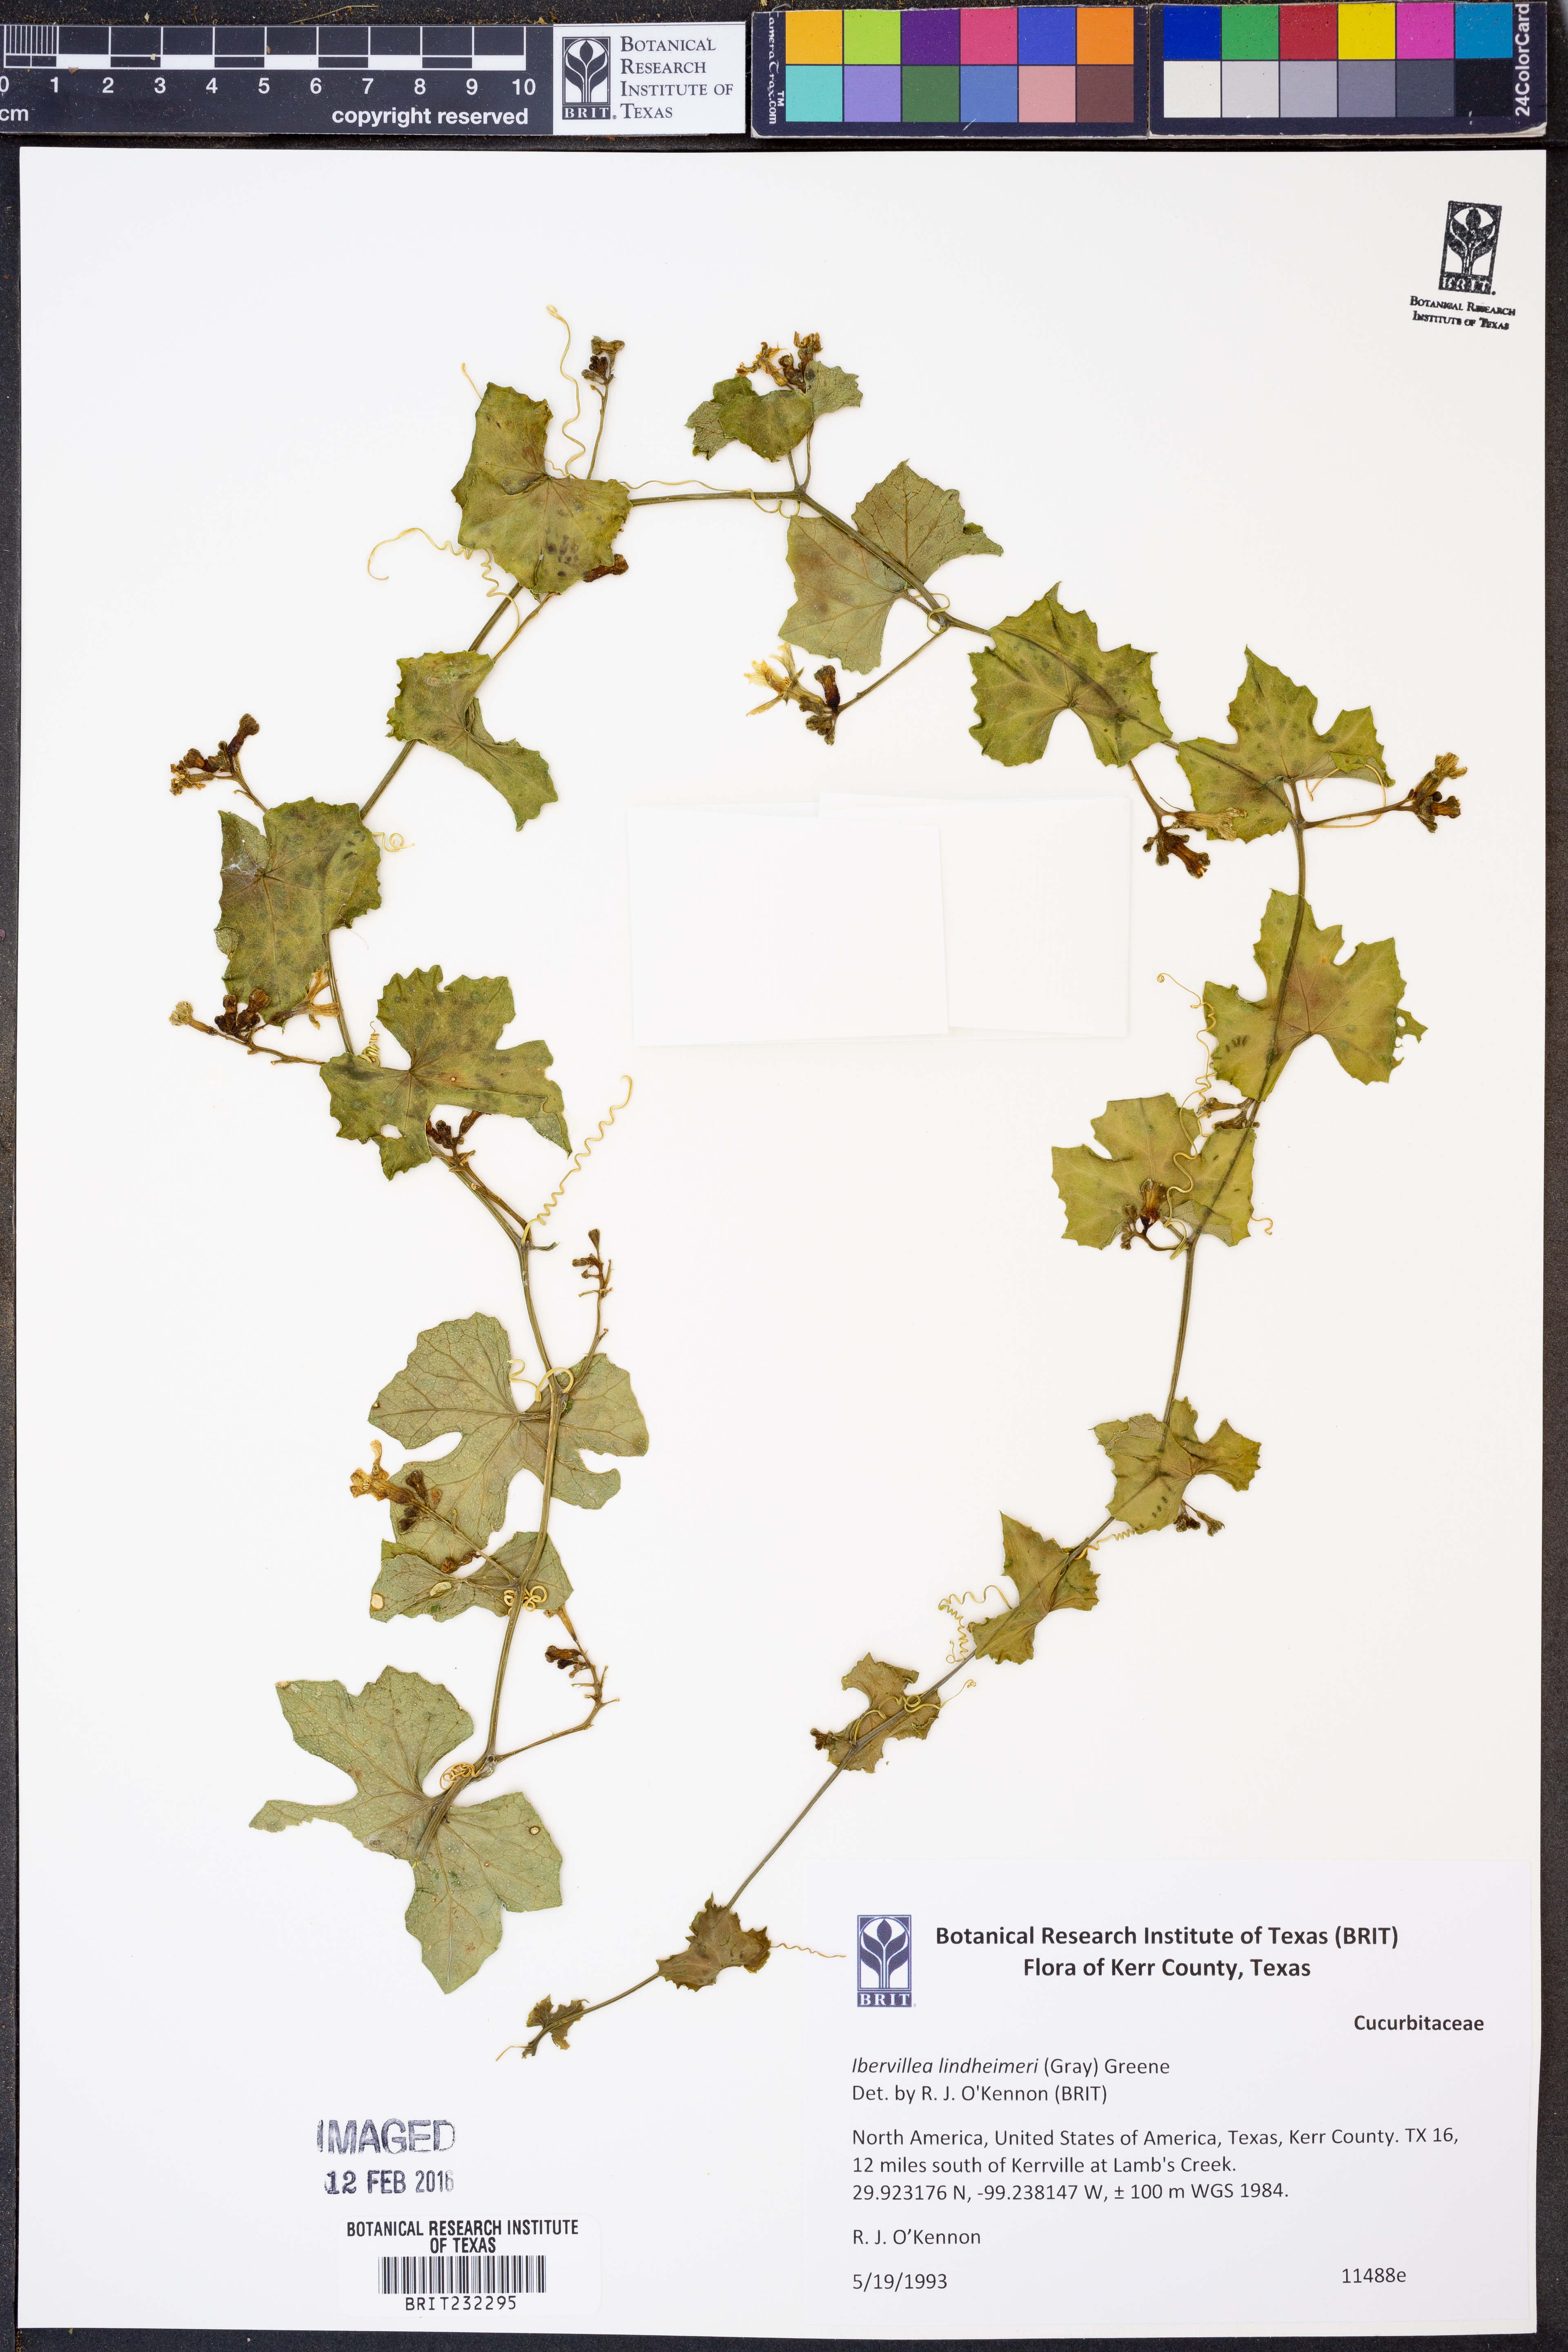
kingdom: Plantae
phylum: Tracheophyta
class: Magnoliopsida
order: Cucurbitales
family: Cucurbitaceae
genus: Ibervillea
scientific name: Ibervillea lindheimeri
